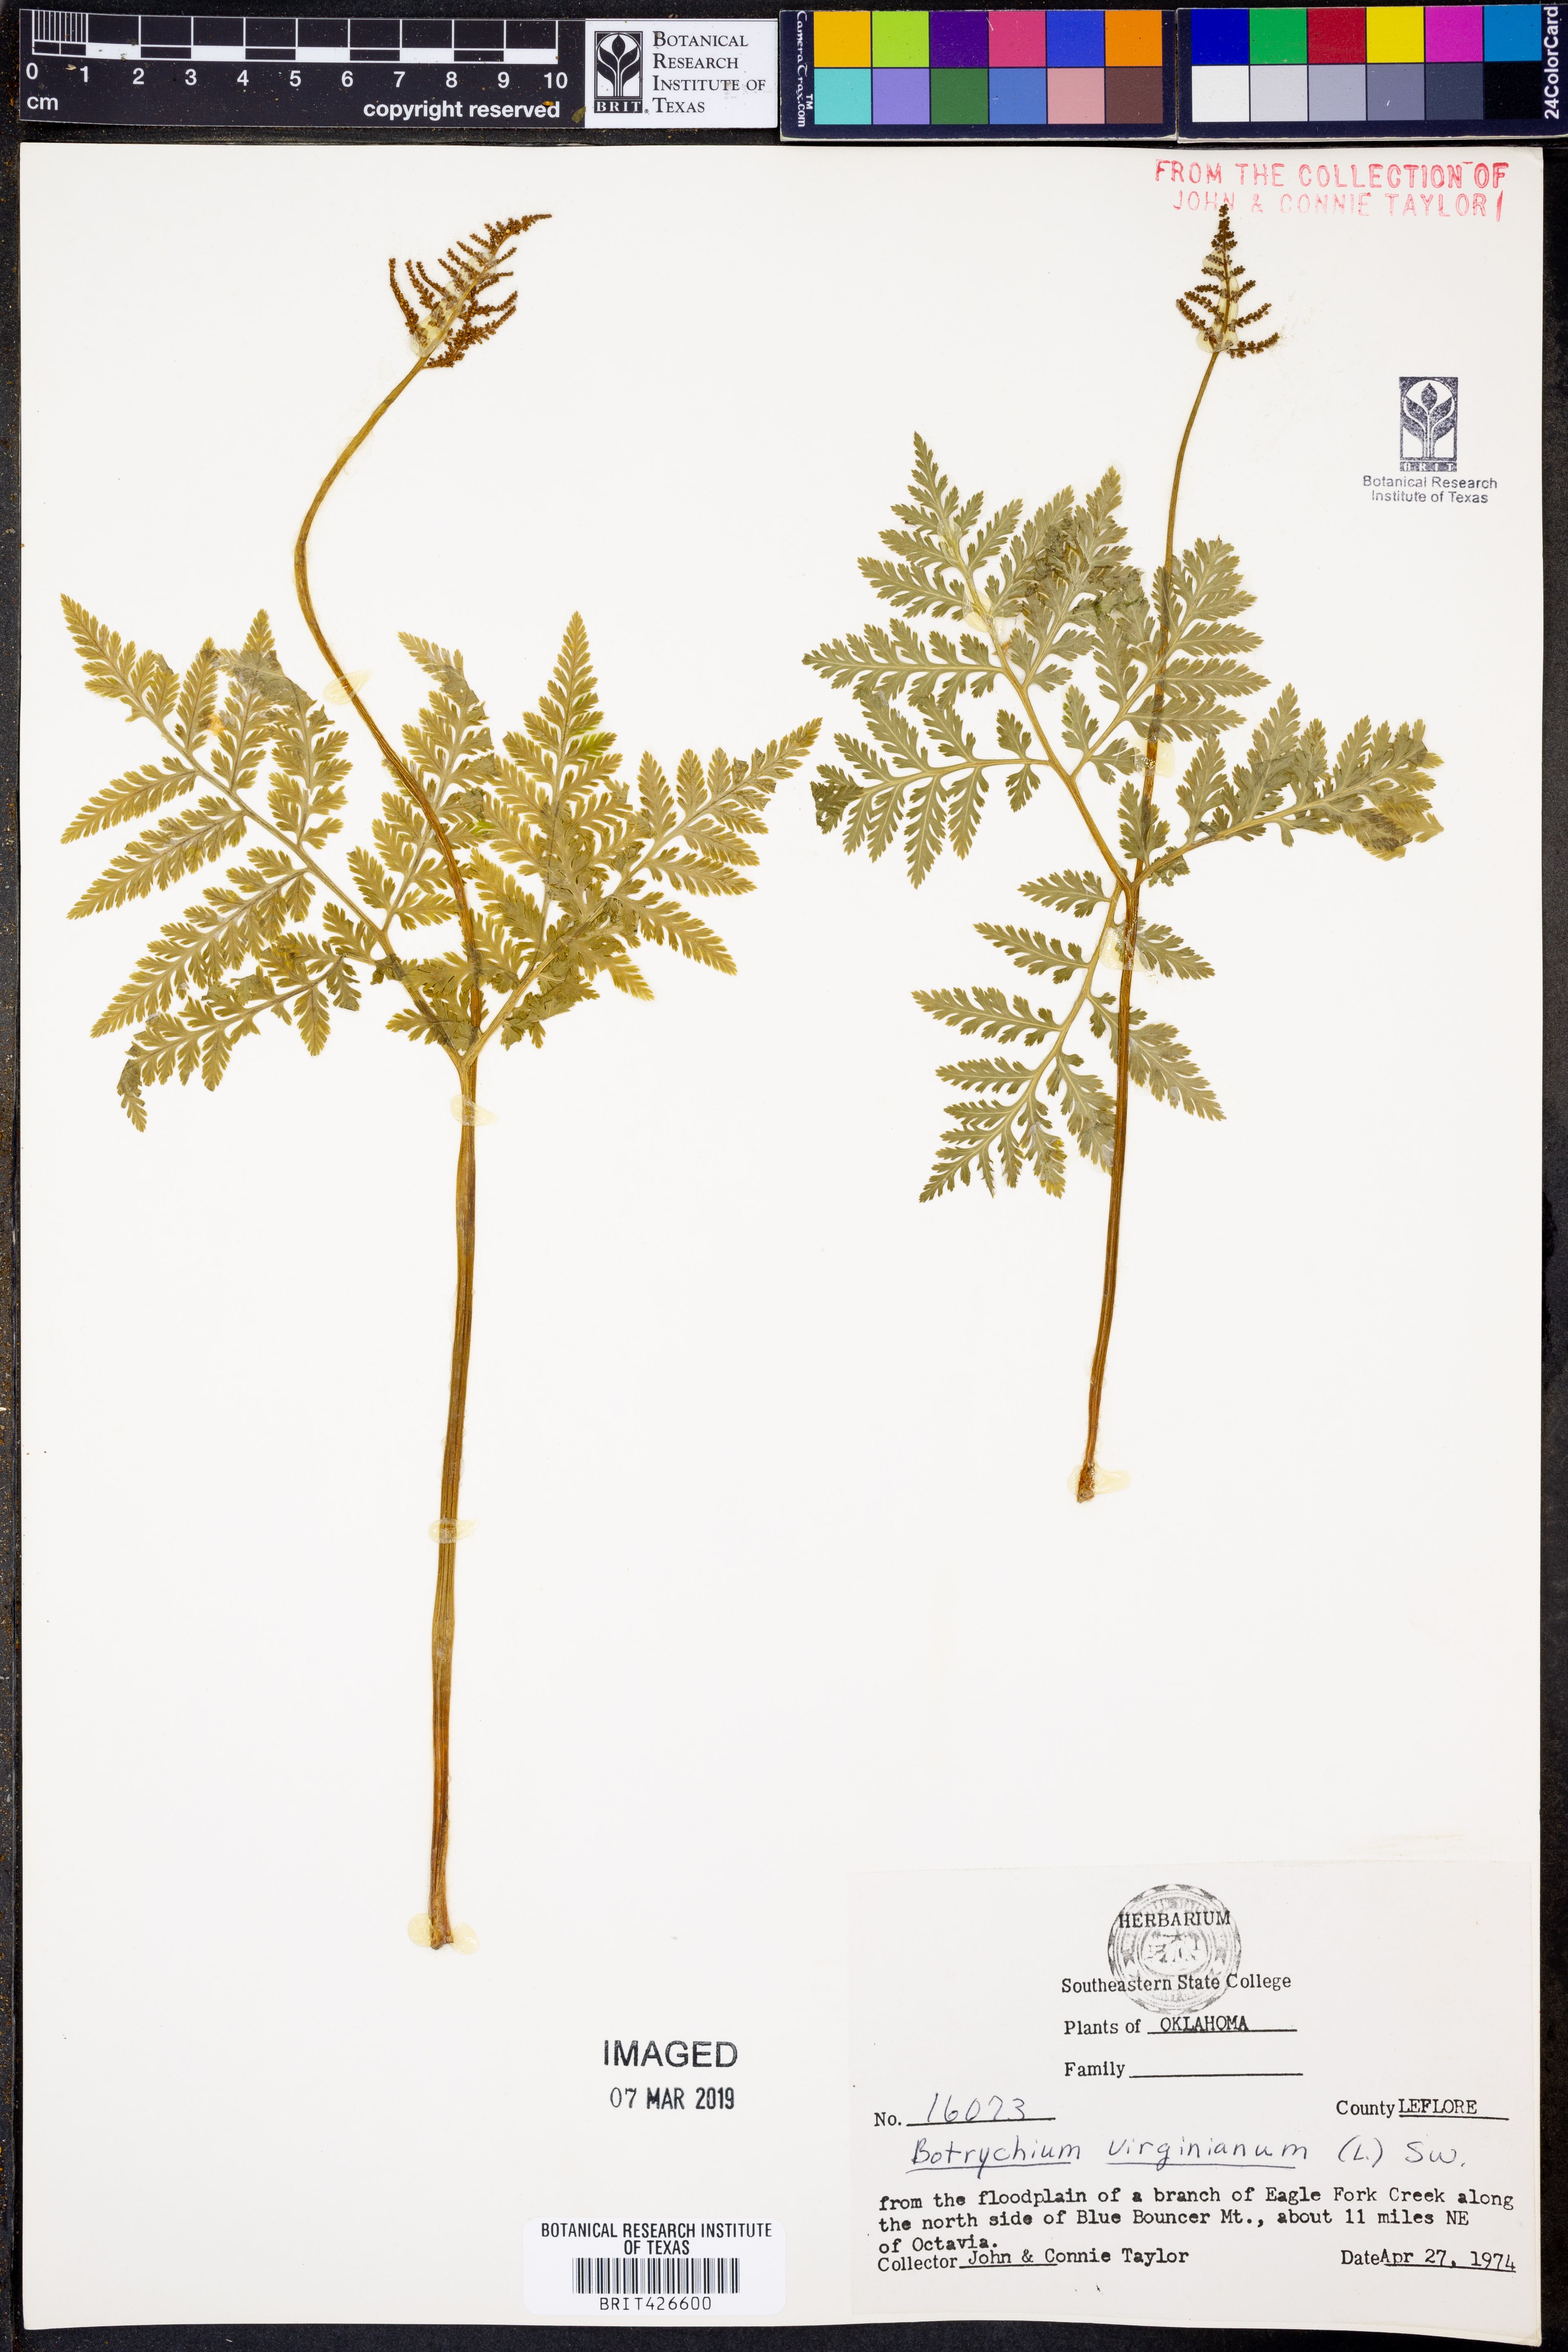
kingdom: Plantae
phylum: Tracheophyta
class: Polypodiopsida
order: Ophioglossales
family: Ophioglossaceae
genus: Botrypus
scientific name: Botrypus virginianus
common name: Common grapefern
